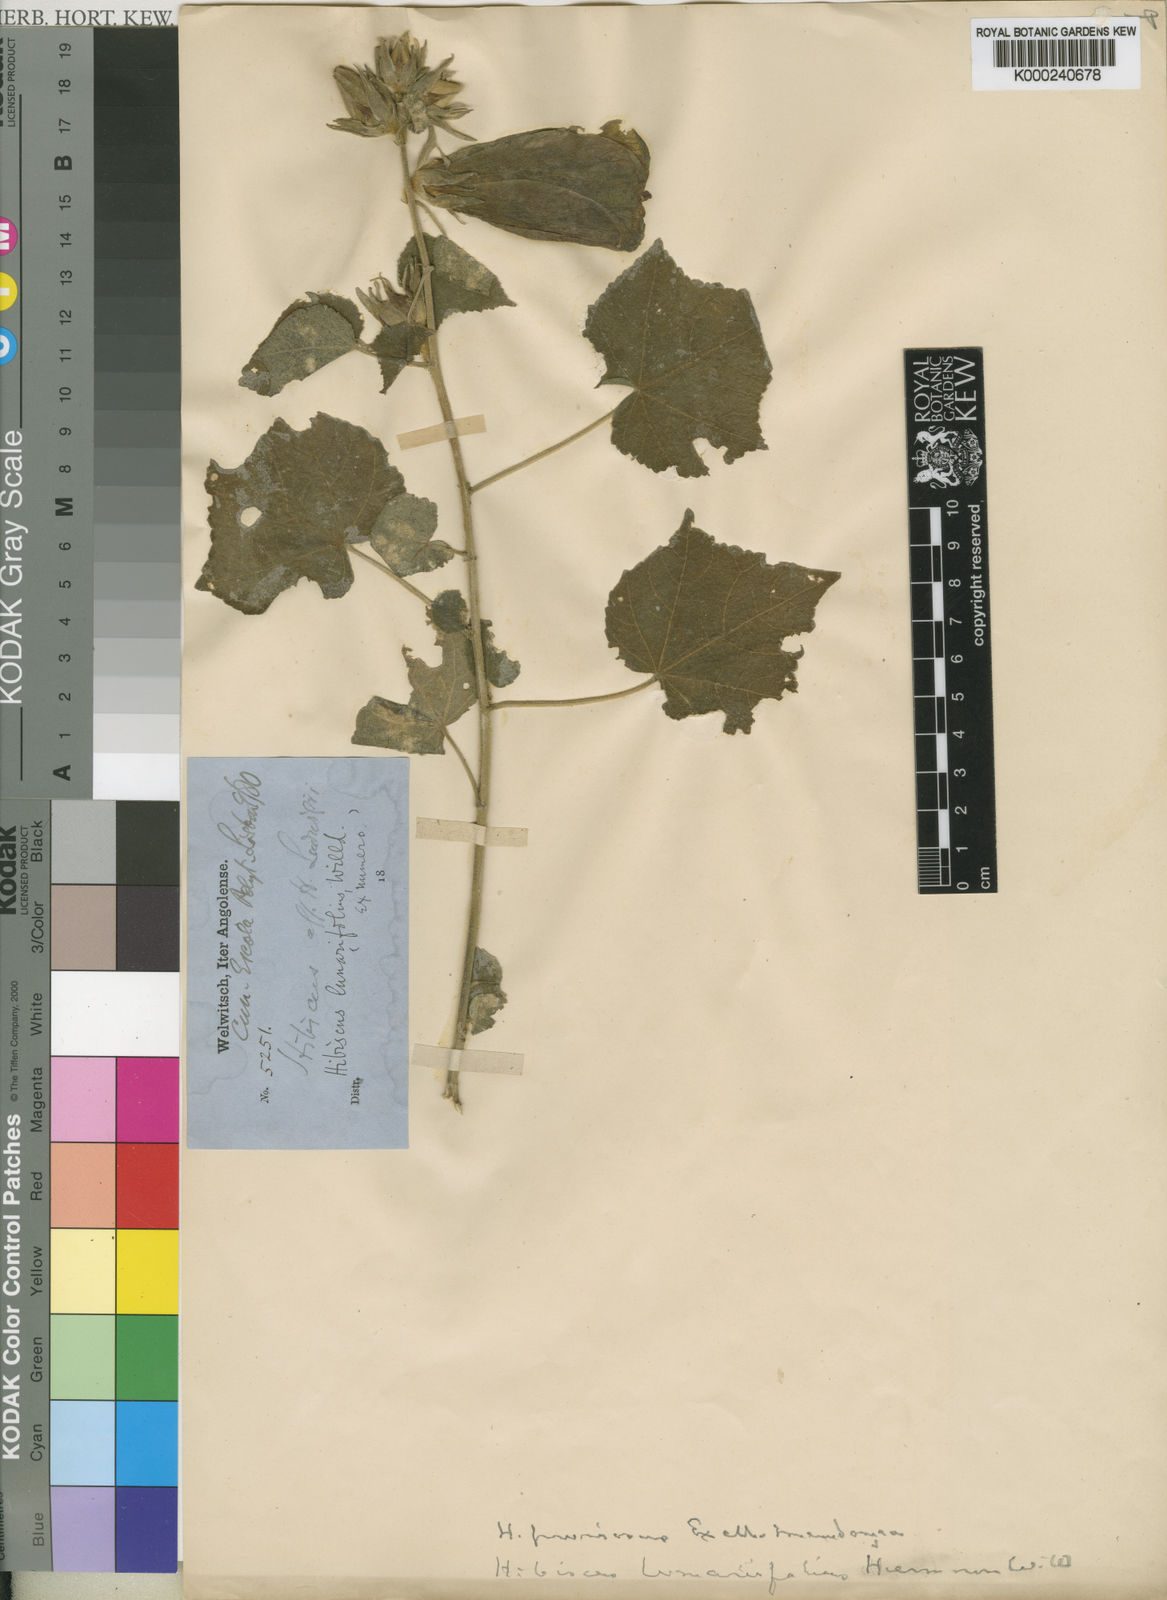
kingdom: Plantae
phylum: Tracheophyta
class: Magnoliopsida
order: Malvales
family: Malvaceae
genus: Hibiscus
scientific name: Hibiscus
